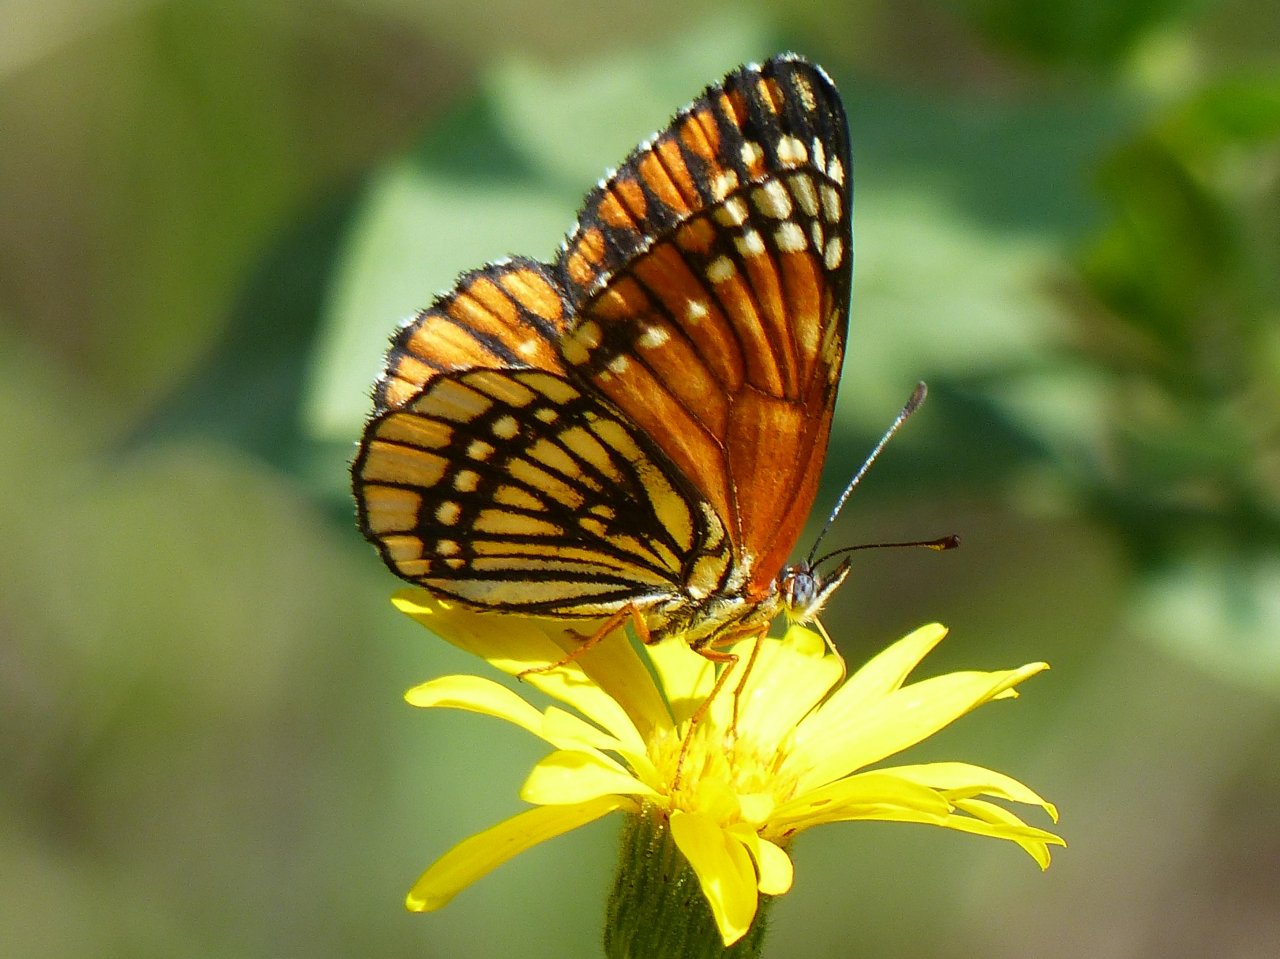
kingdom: Animalia
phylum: Arthropoda
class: Insecta
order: Lepidoptera
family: Nymphalidae
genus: Thessalia
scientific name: Thessalia leanira
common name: Fulvia Checkerspot
